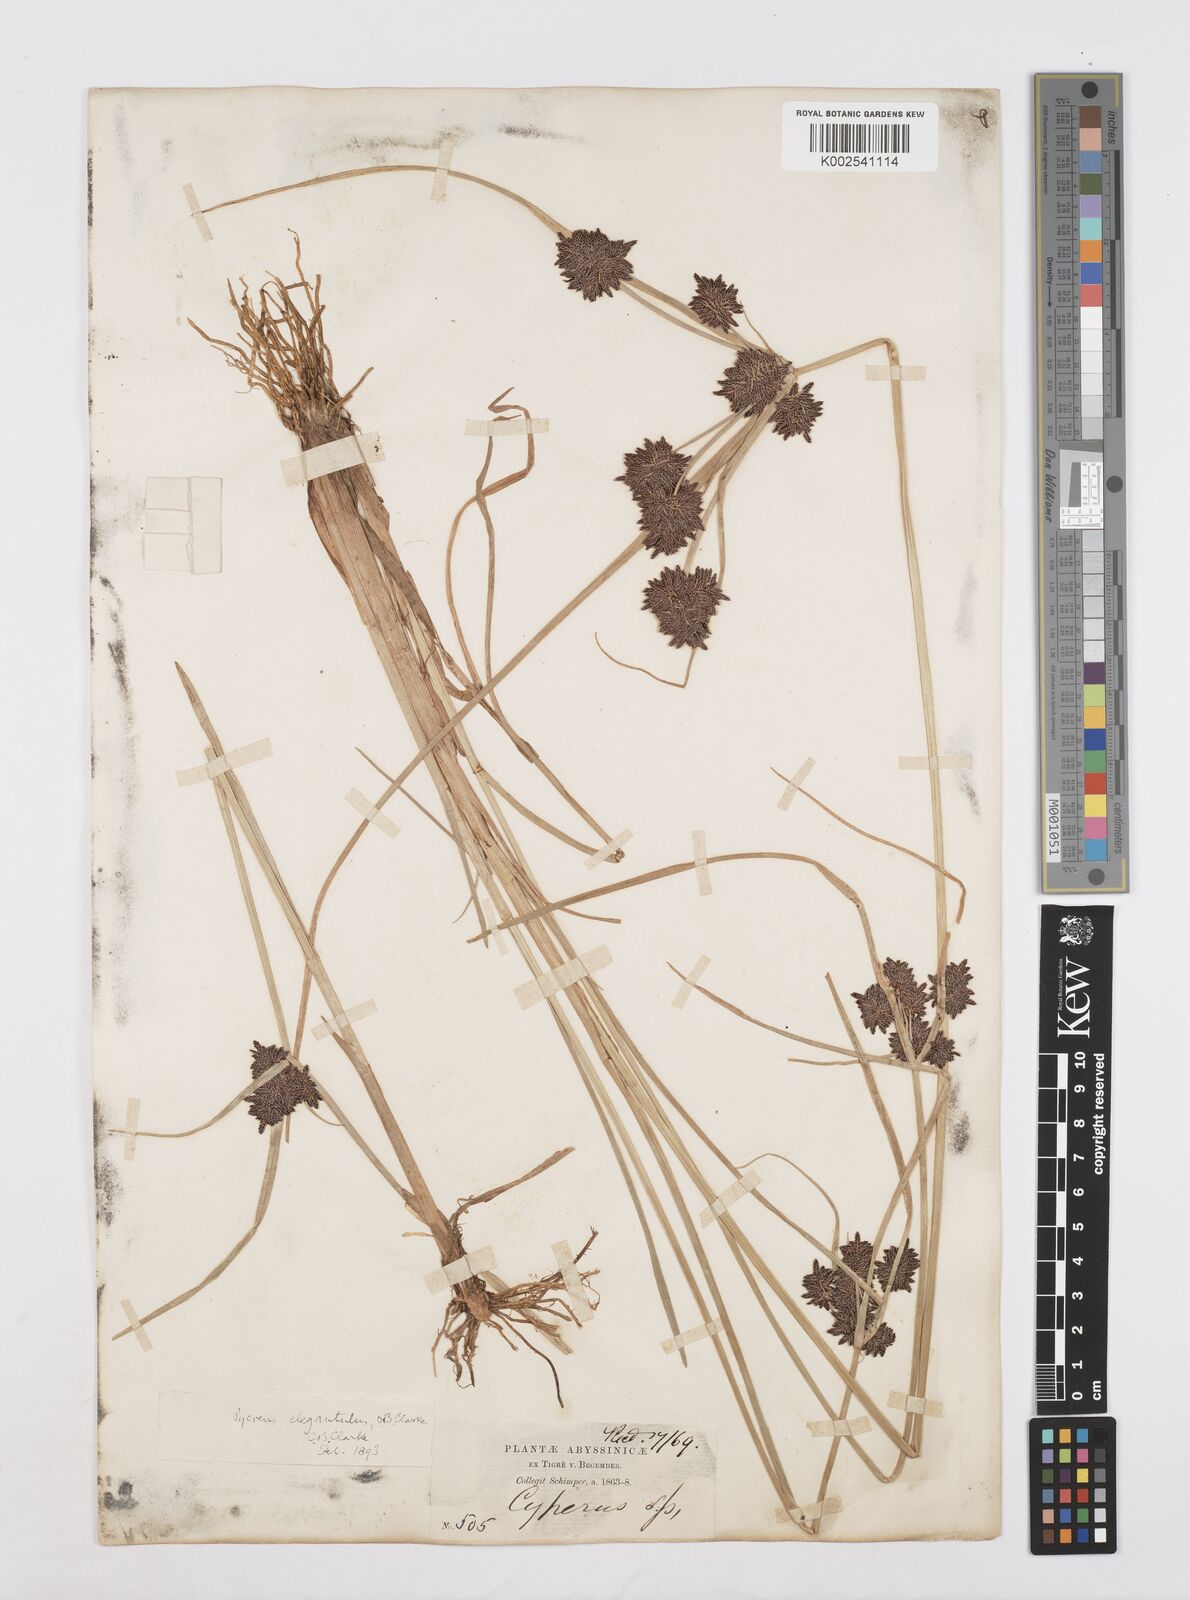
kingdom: Plantae
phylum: Tracheophyta
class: Liliopsida
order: Poales
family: Cyperaceae
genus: Cyperus
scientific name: Cyperus elegantulus
